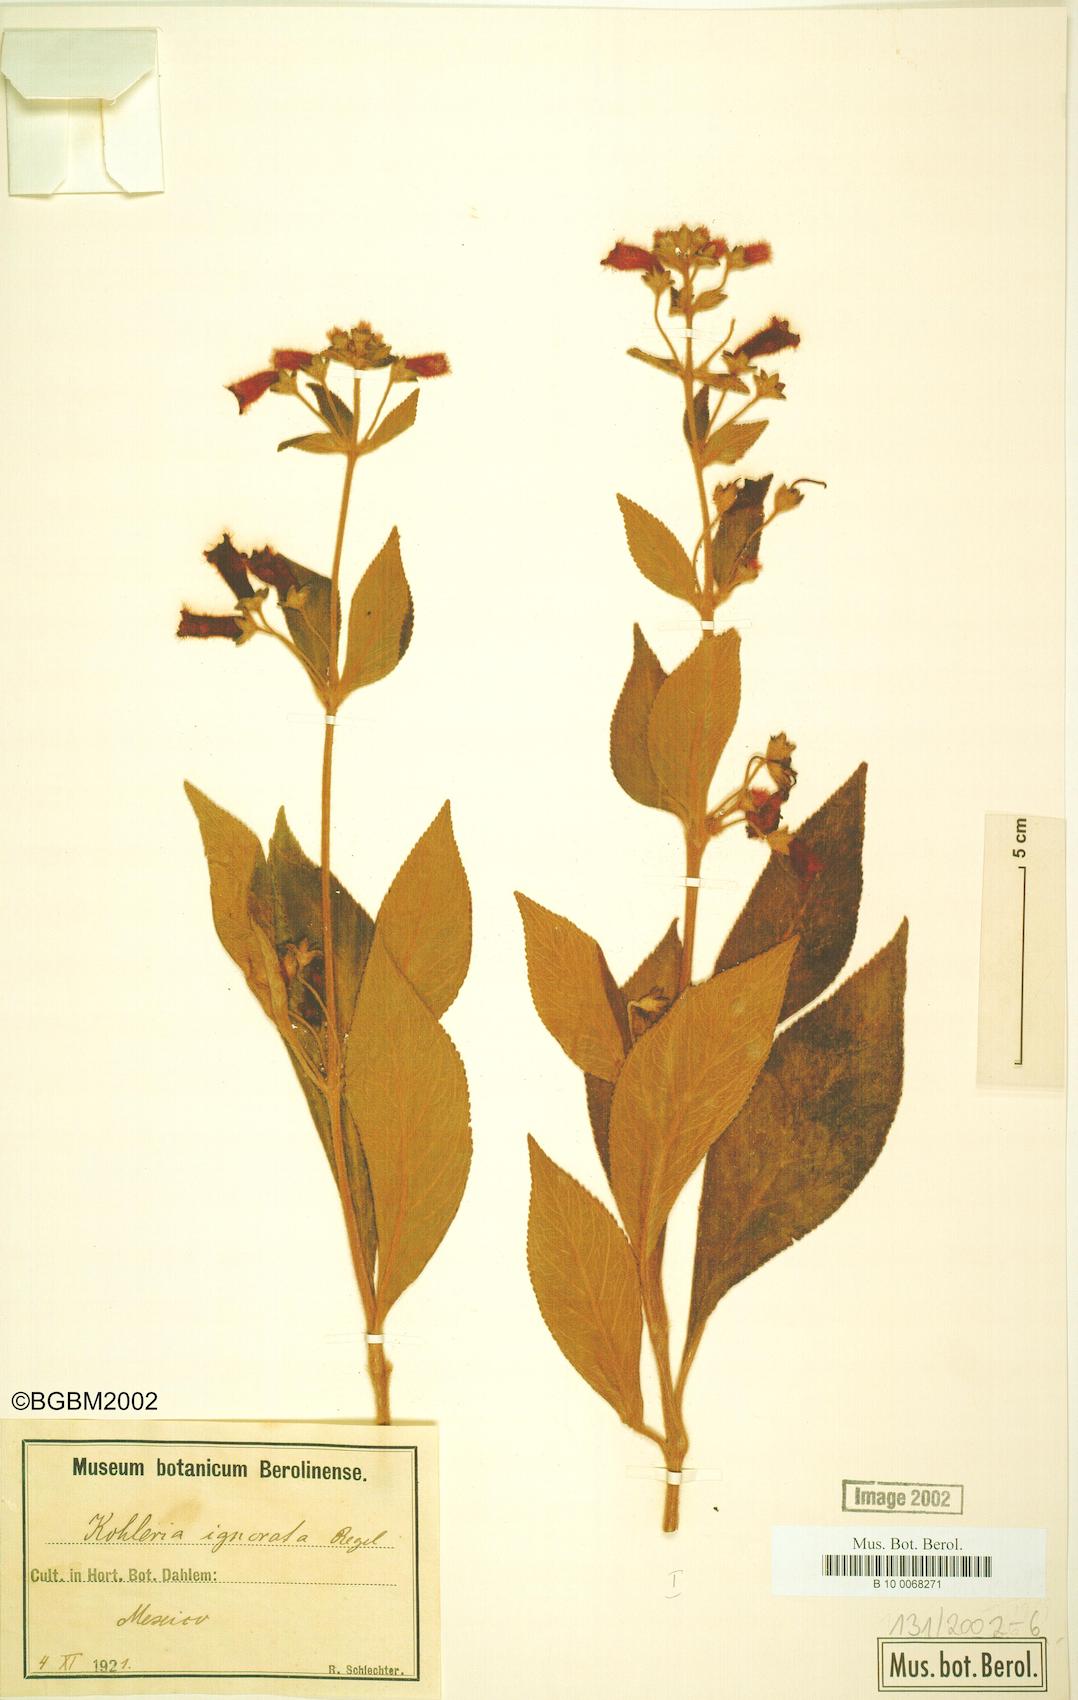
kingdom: Plantae
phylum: Tracheophyta
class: Magnoliopsida
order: Lamiales
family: Gesneriaceae
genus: Kohleria
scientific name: Kohleria spicata
